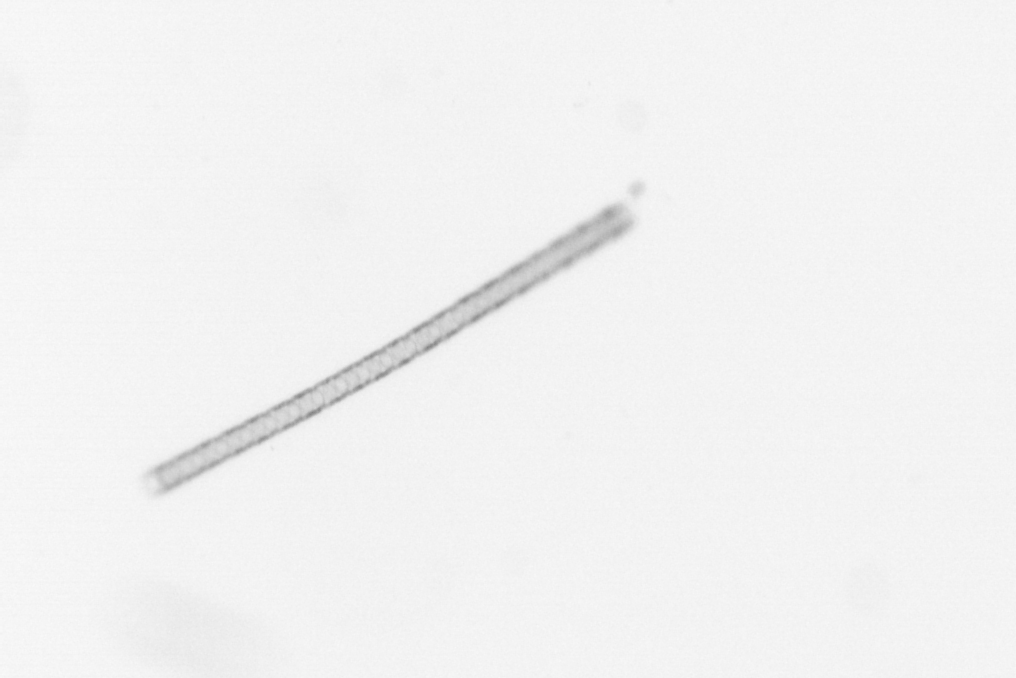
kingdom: Chromista
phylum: Ochrophyta
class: Bacillariophyceae
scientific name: Bacillariophyceae
